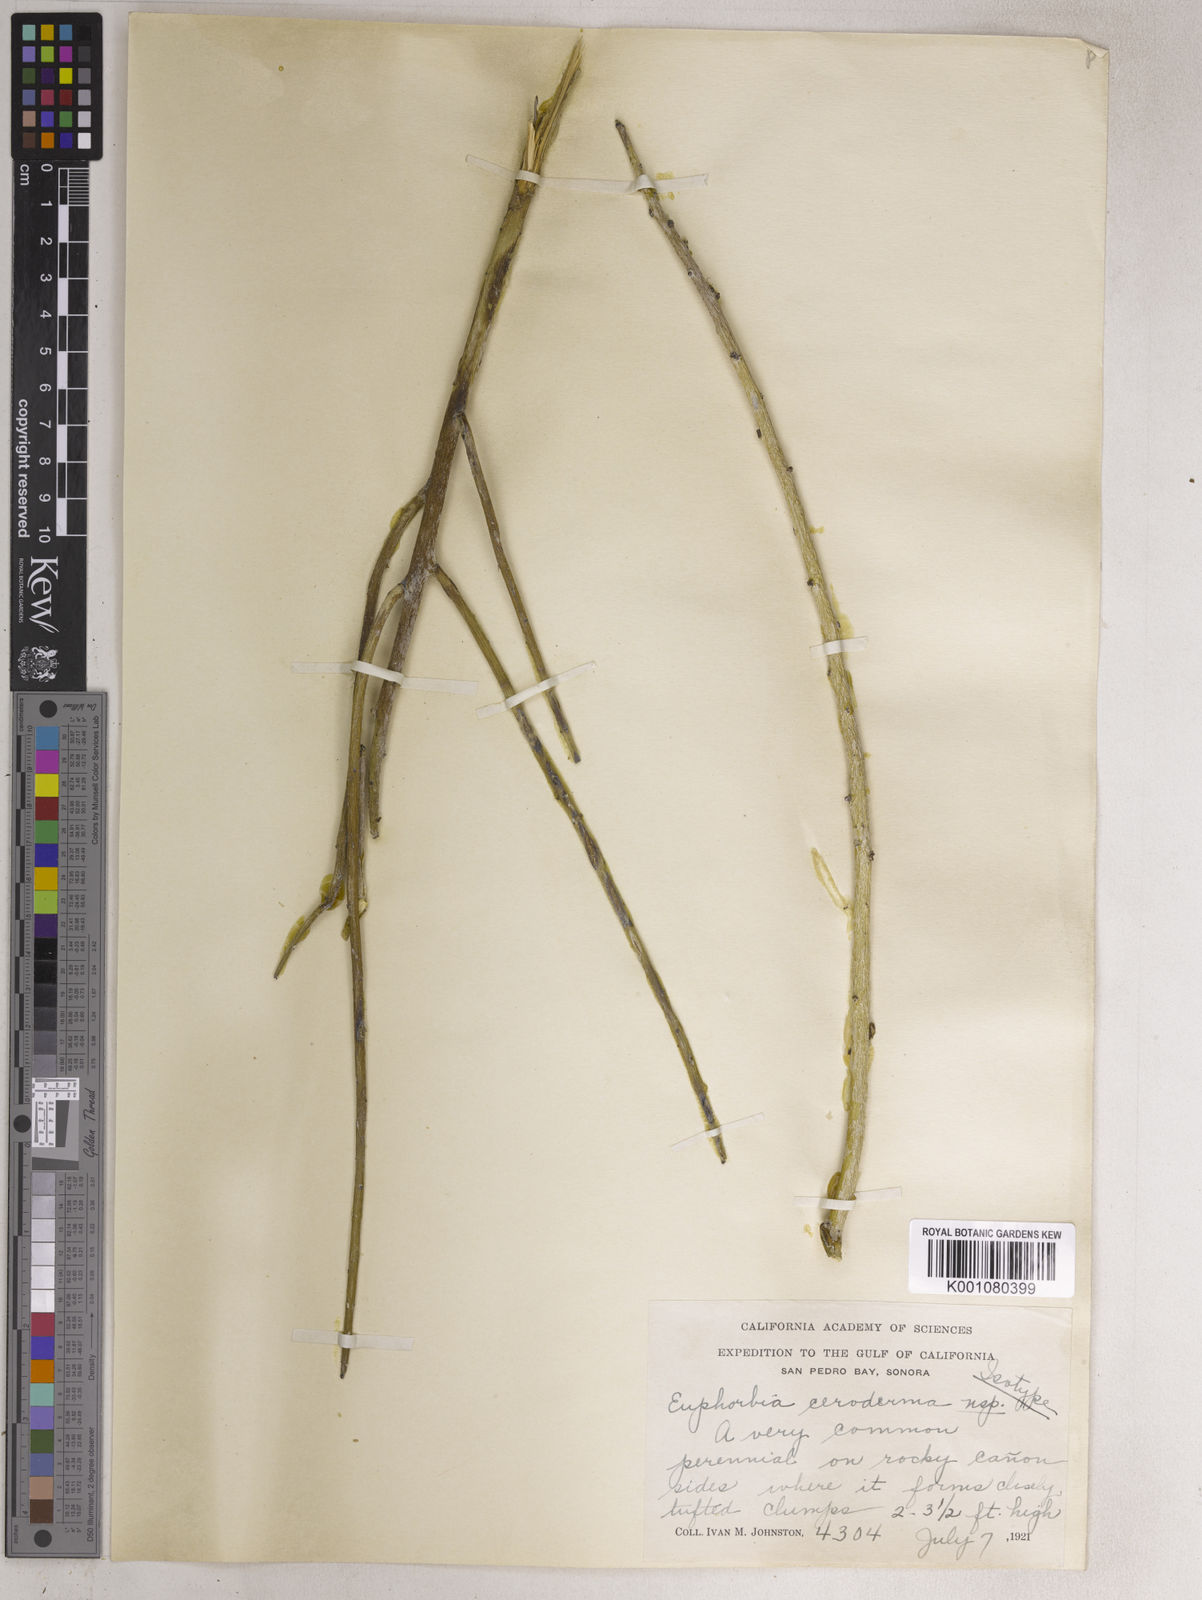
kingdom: Plantae
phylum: Tracheophyta
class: Magnoliopsida
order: Malpighiales
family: Euphorbiaceae
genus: Euphorbia
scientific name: Euphorbia ceroderma
